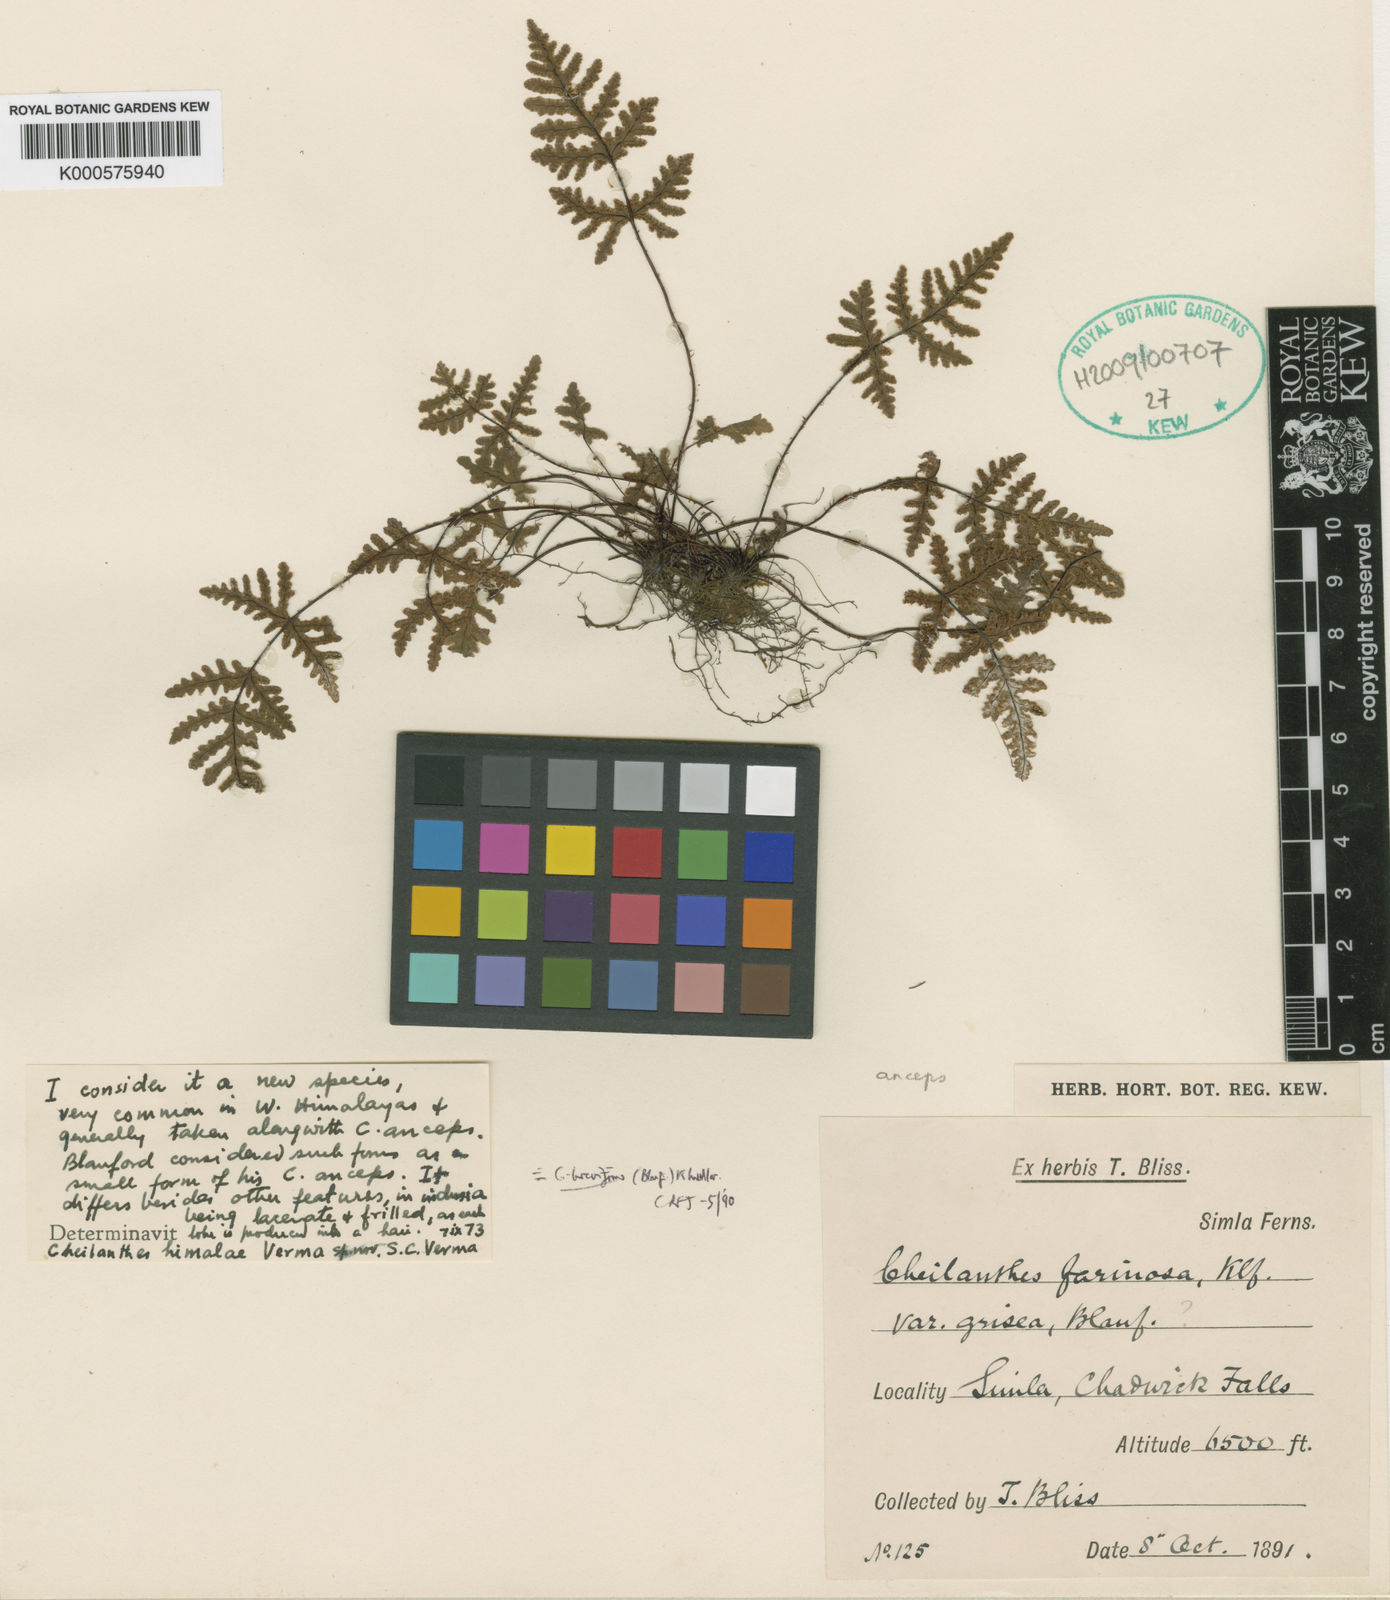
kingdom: Plantae
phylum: Tracheophyta
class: Polypodiopsida
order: Polypodiales
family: Pteridaceae
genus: Aleuritopteris
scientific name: Aleuritopteris formosana
